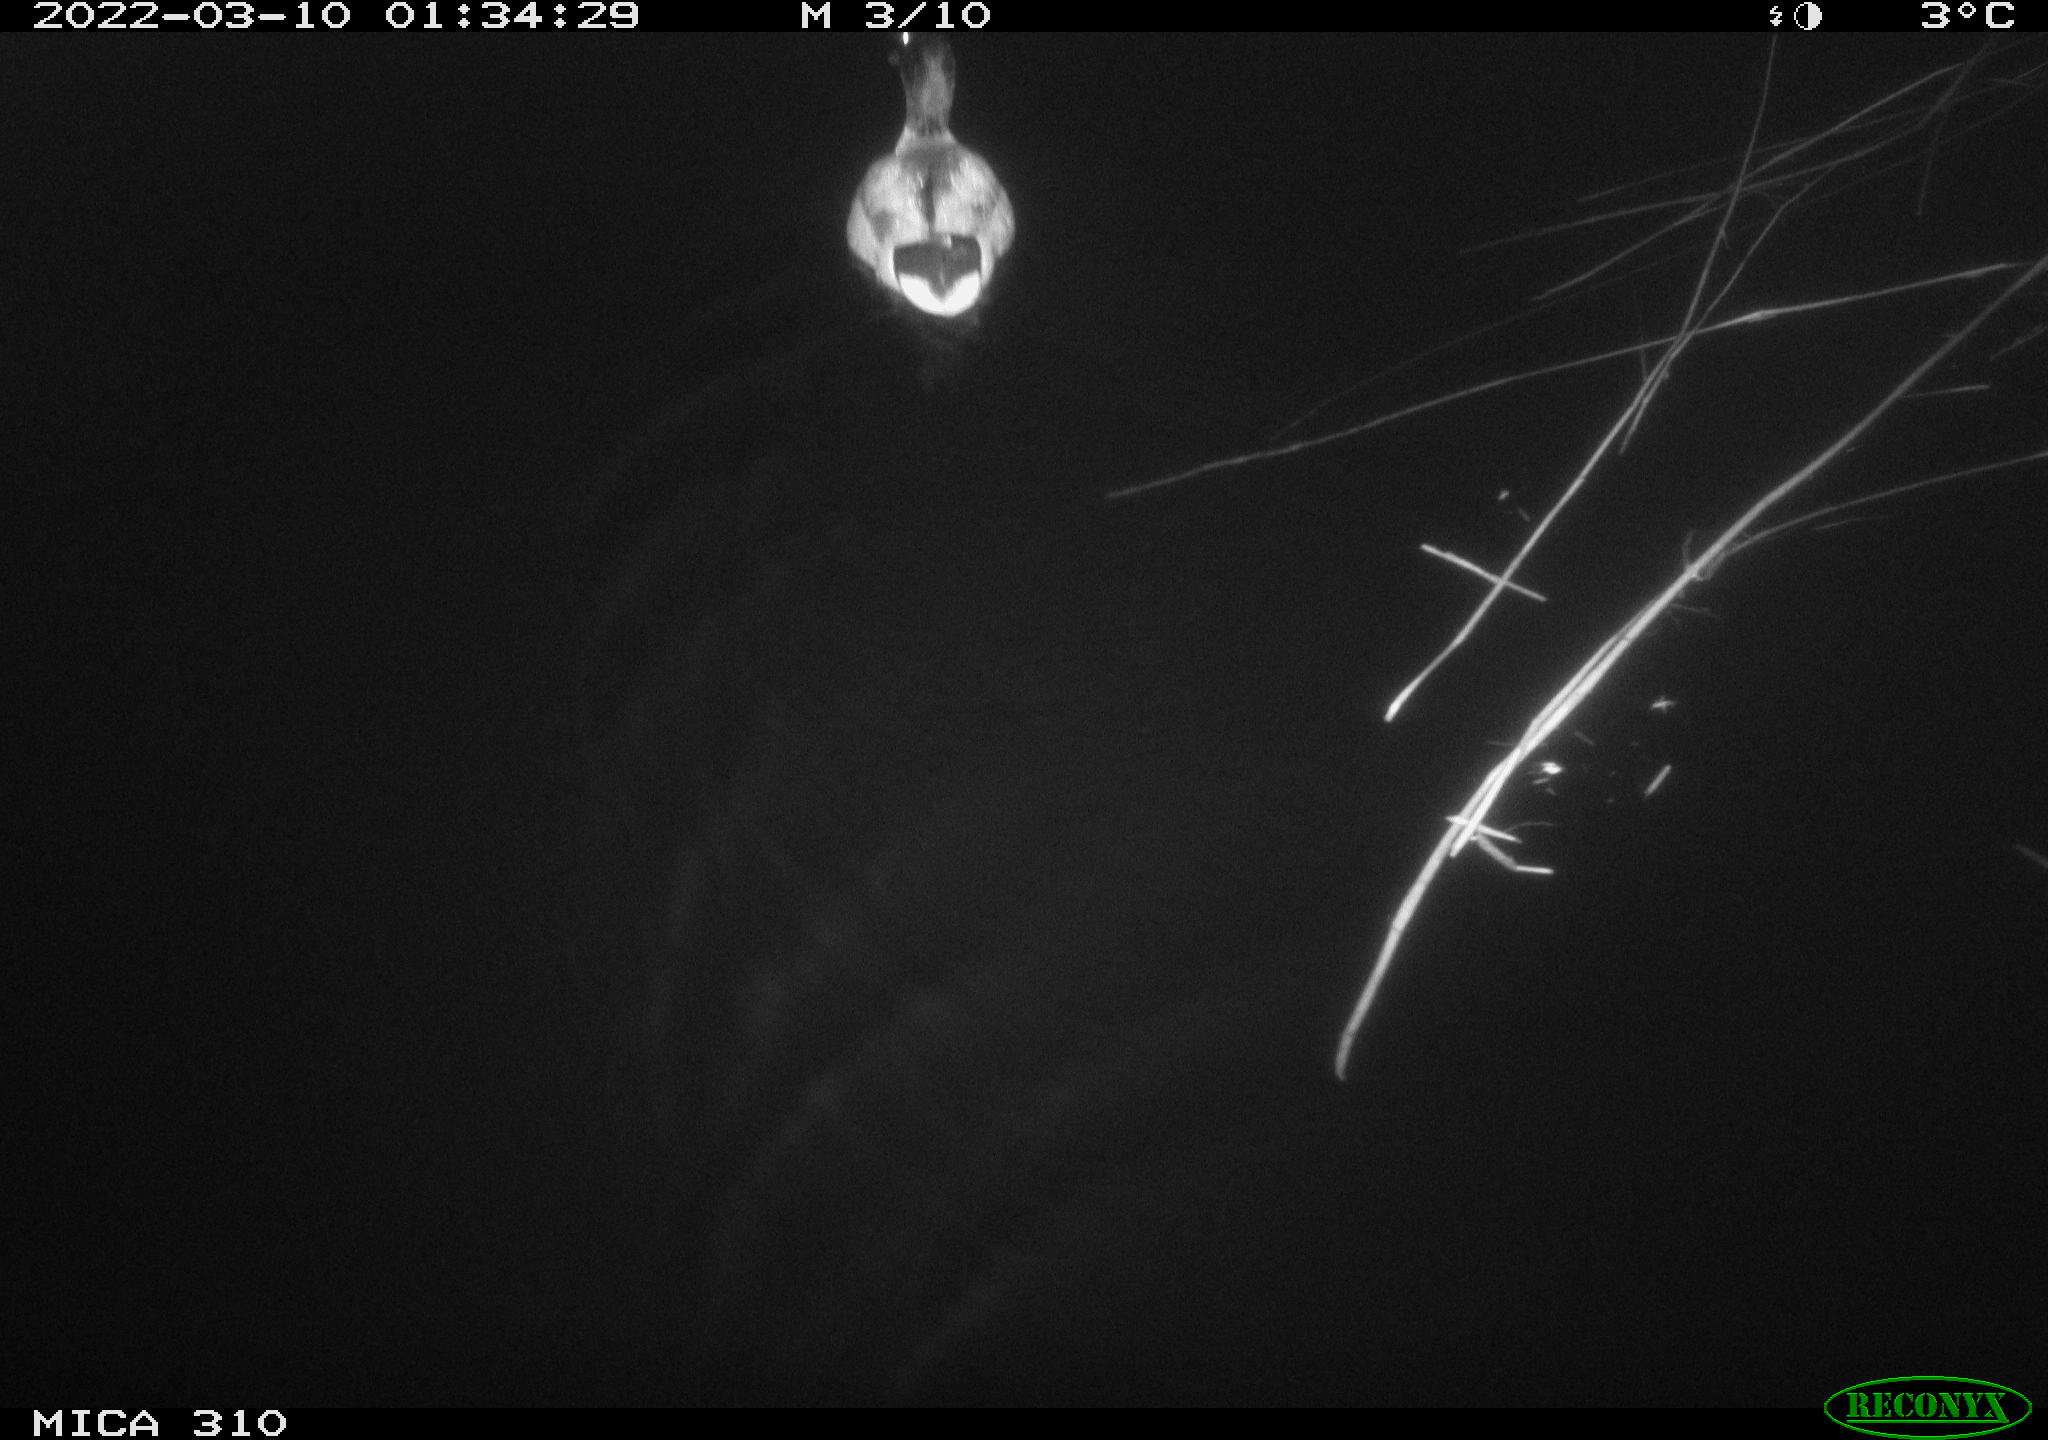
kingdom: Animalia
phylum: Chordata
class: Aves
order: Anseriformes
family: Anatidae
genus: Anas
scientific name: Anas platyrhynchos
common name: Mallard
